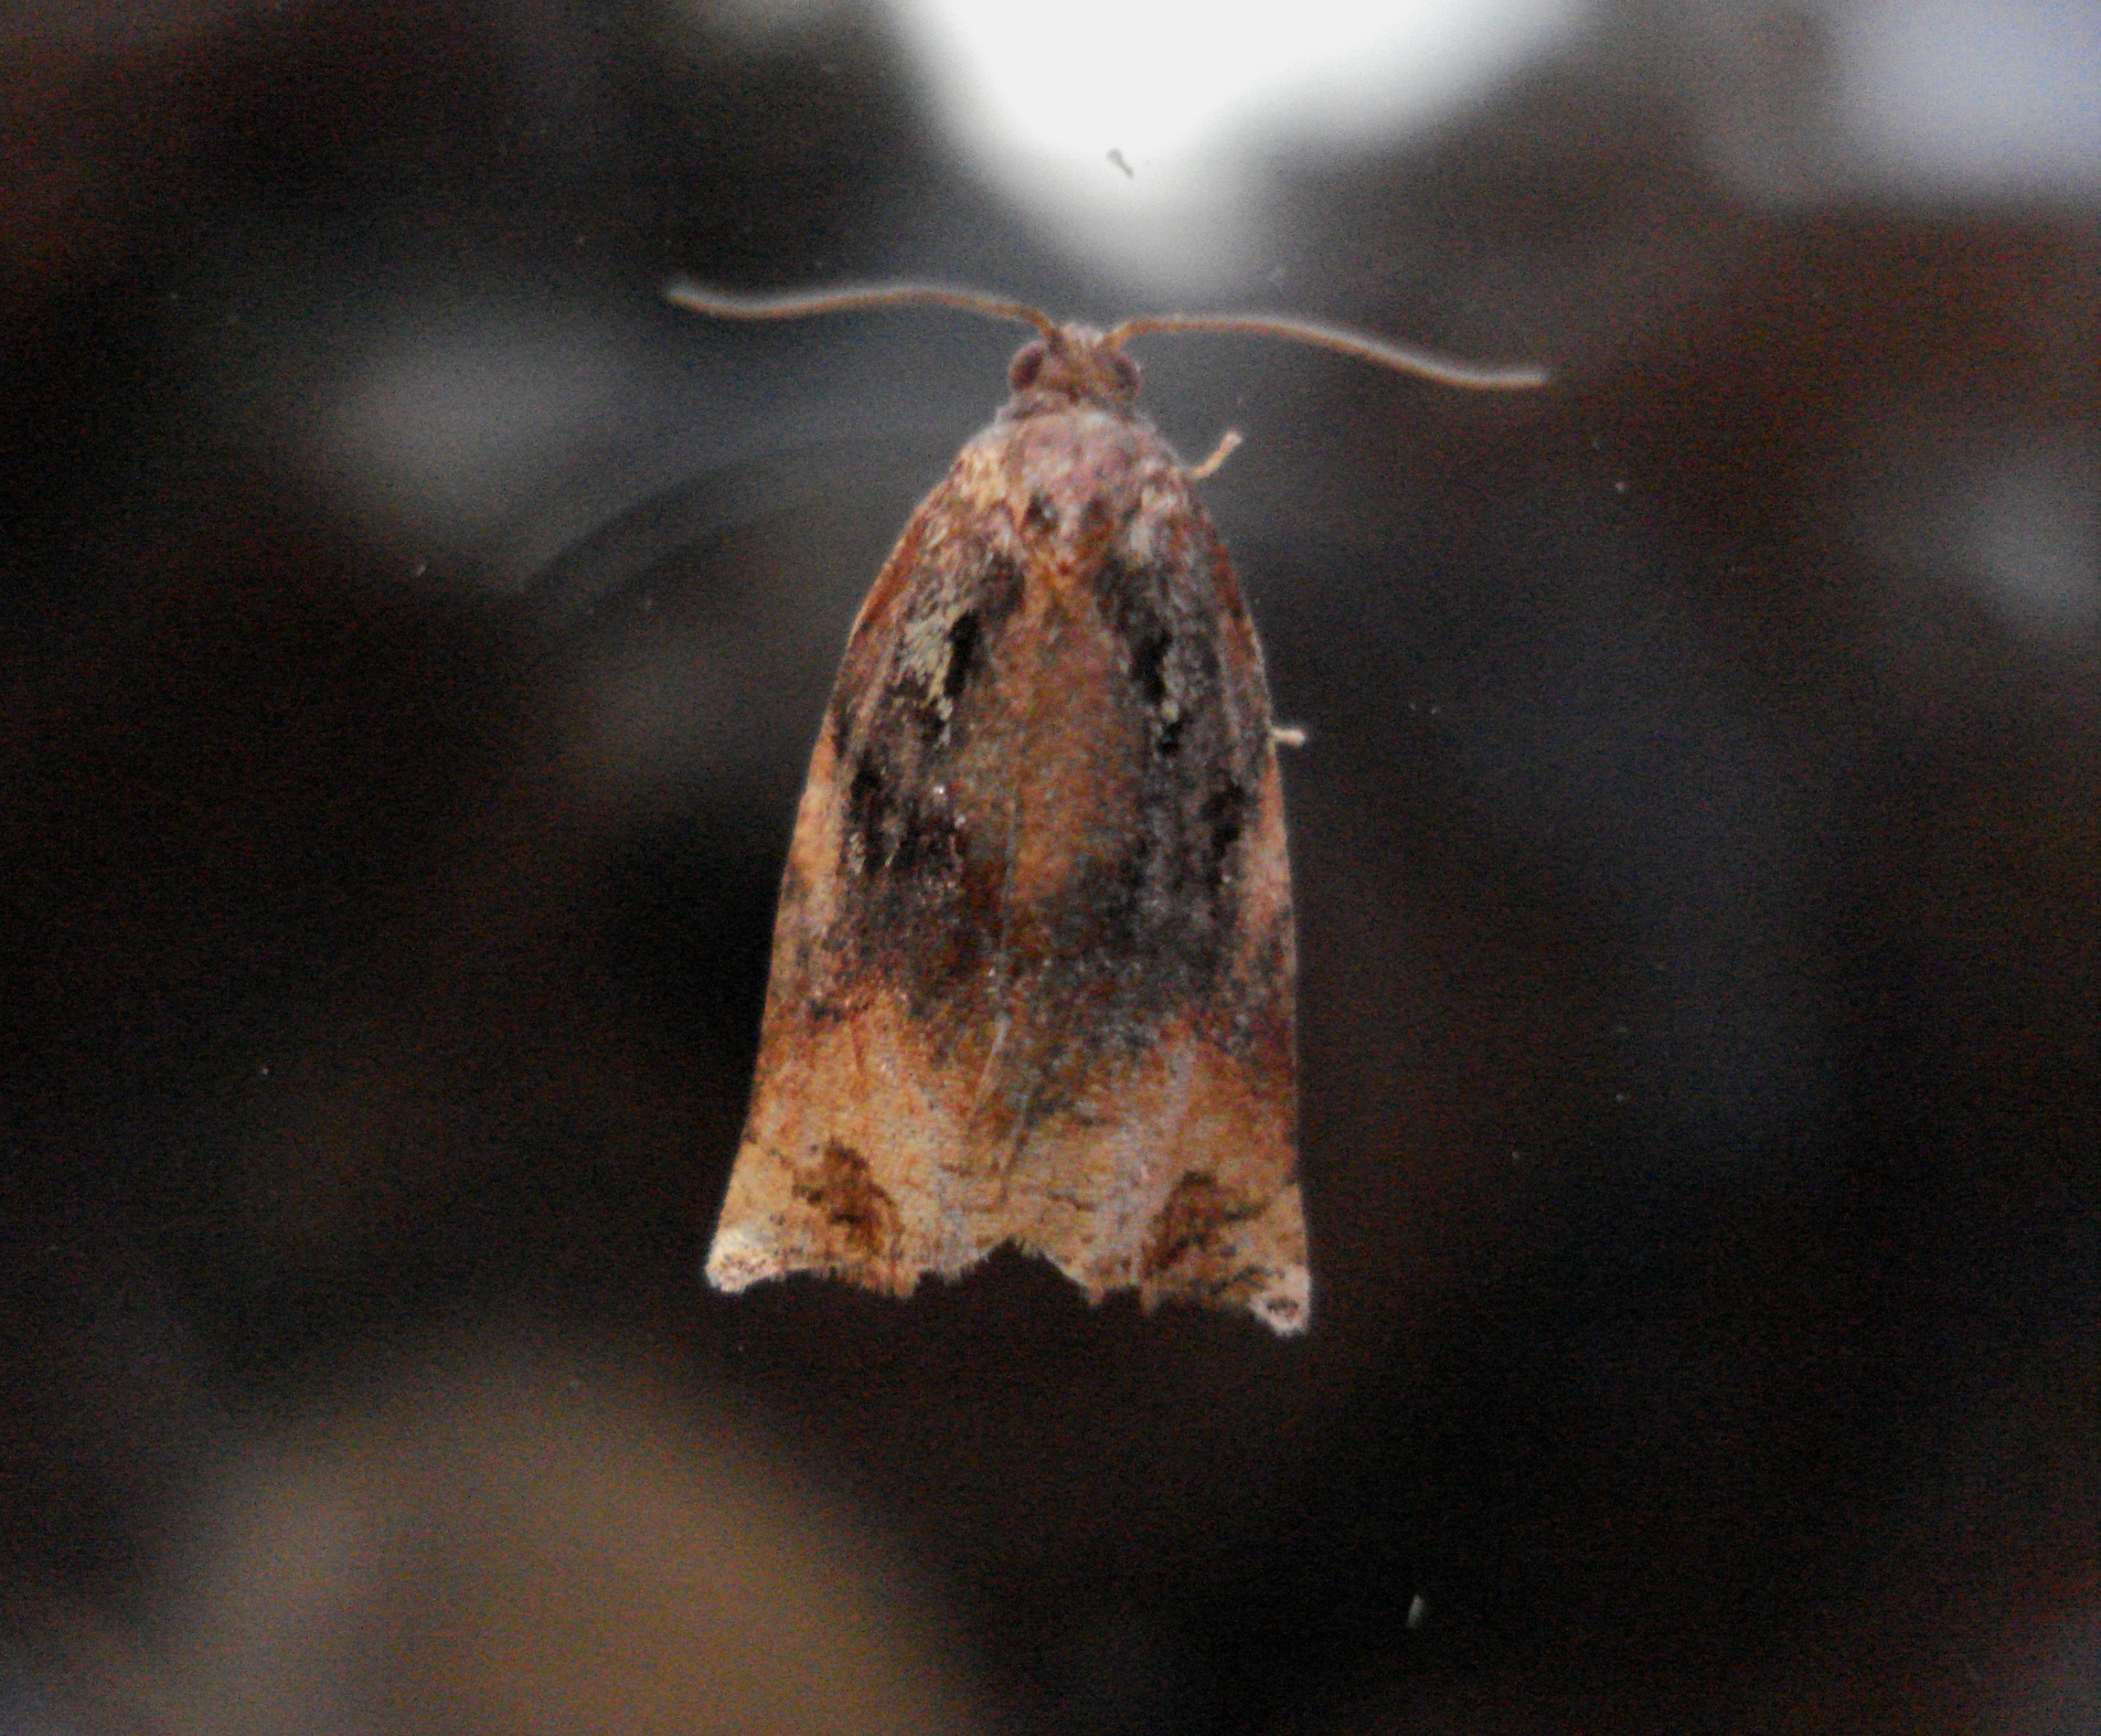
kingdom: Animalia
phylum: Arthropoda
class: Insecta
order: Lepidoptera
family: Tortricidae
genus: Archips
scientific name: Archips podana
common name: Frugttræsommervikler
